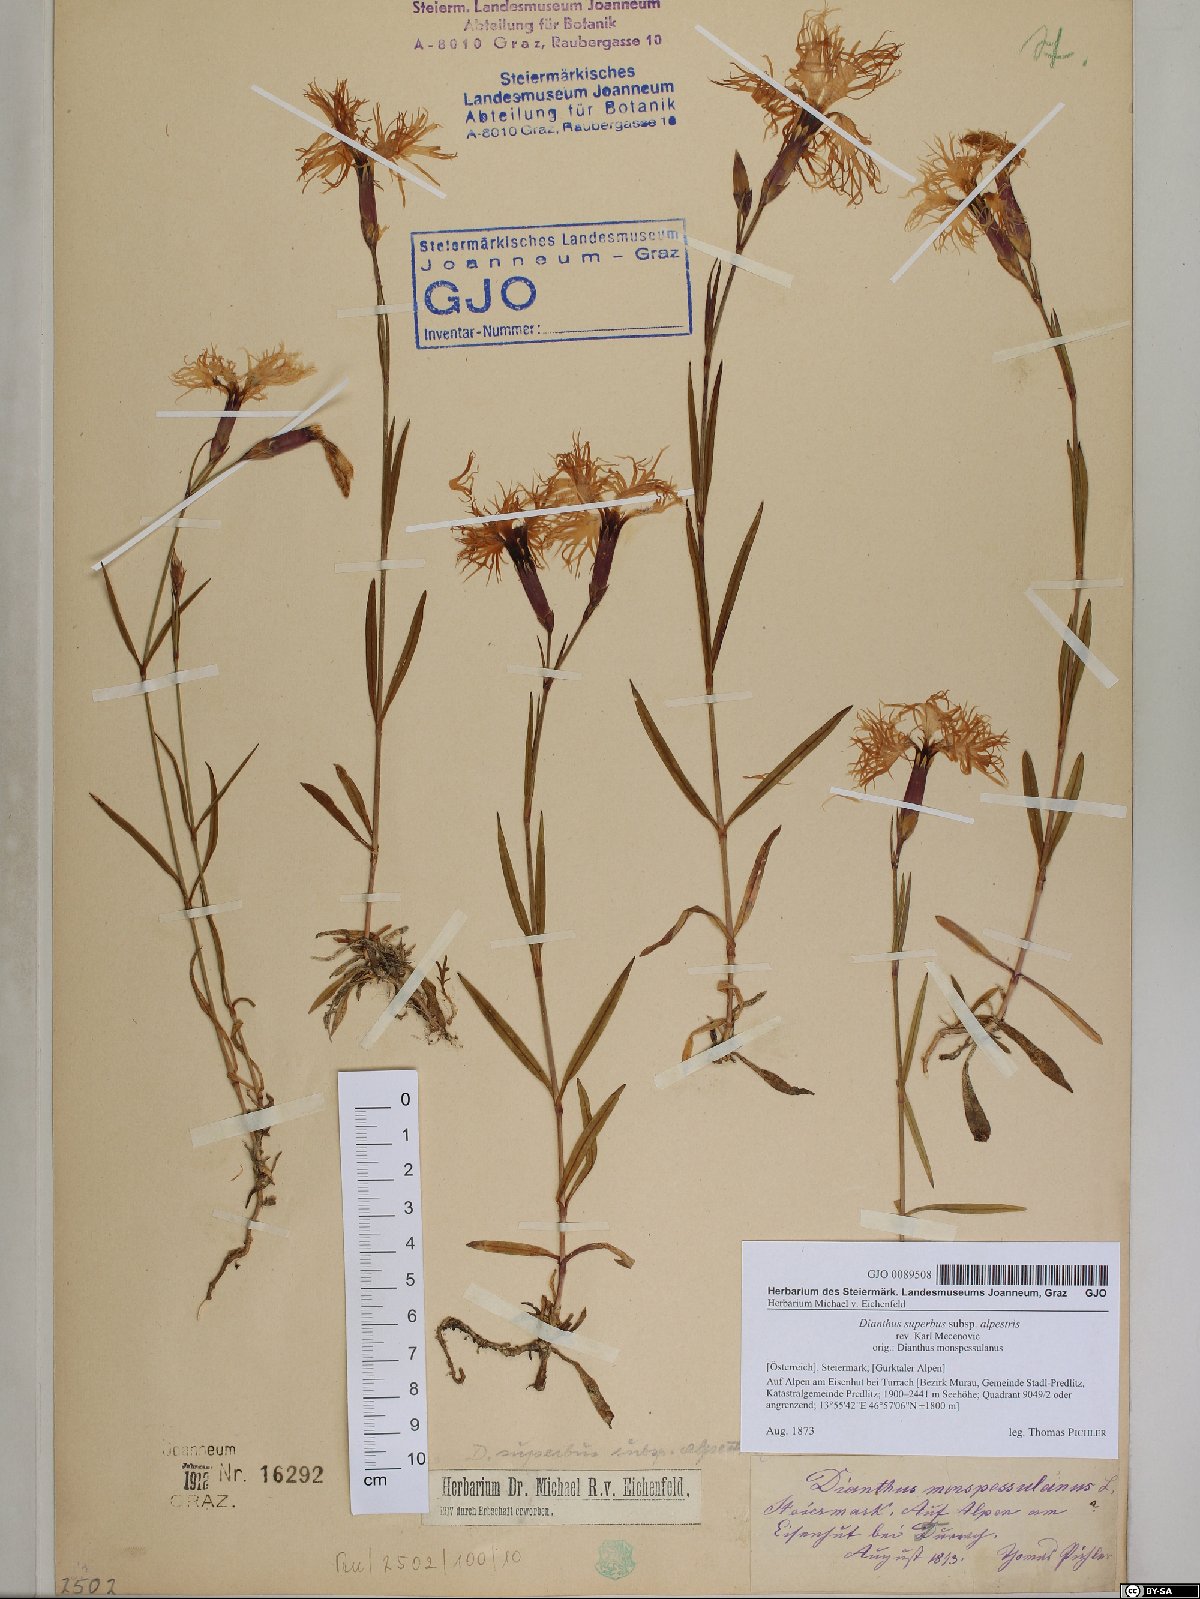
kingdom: Plantae
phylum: Tracheophyta
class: Magnoliopsida
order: Caryophyllales
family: Caryophyllaceae
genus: Dianthus
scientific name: Dianthus superbus
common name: Fringed pink
